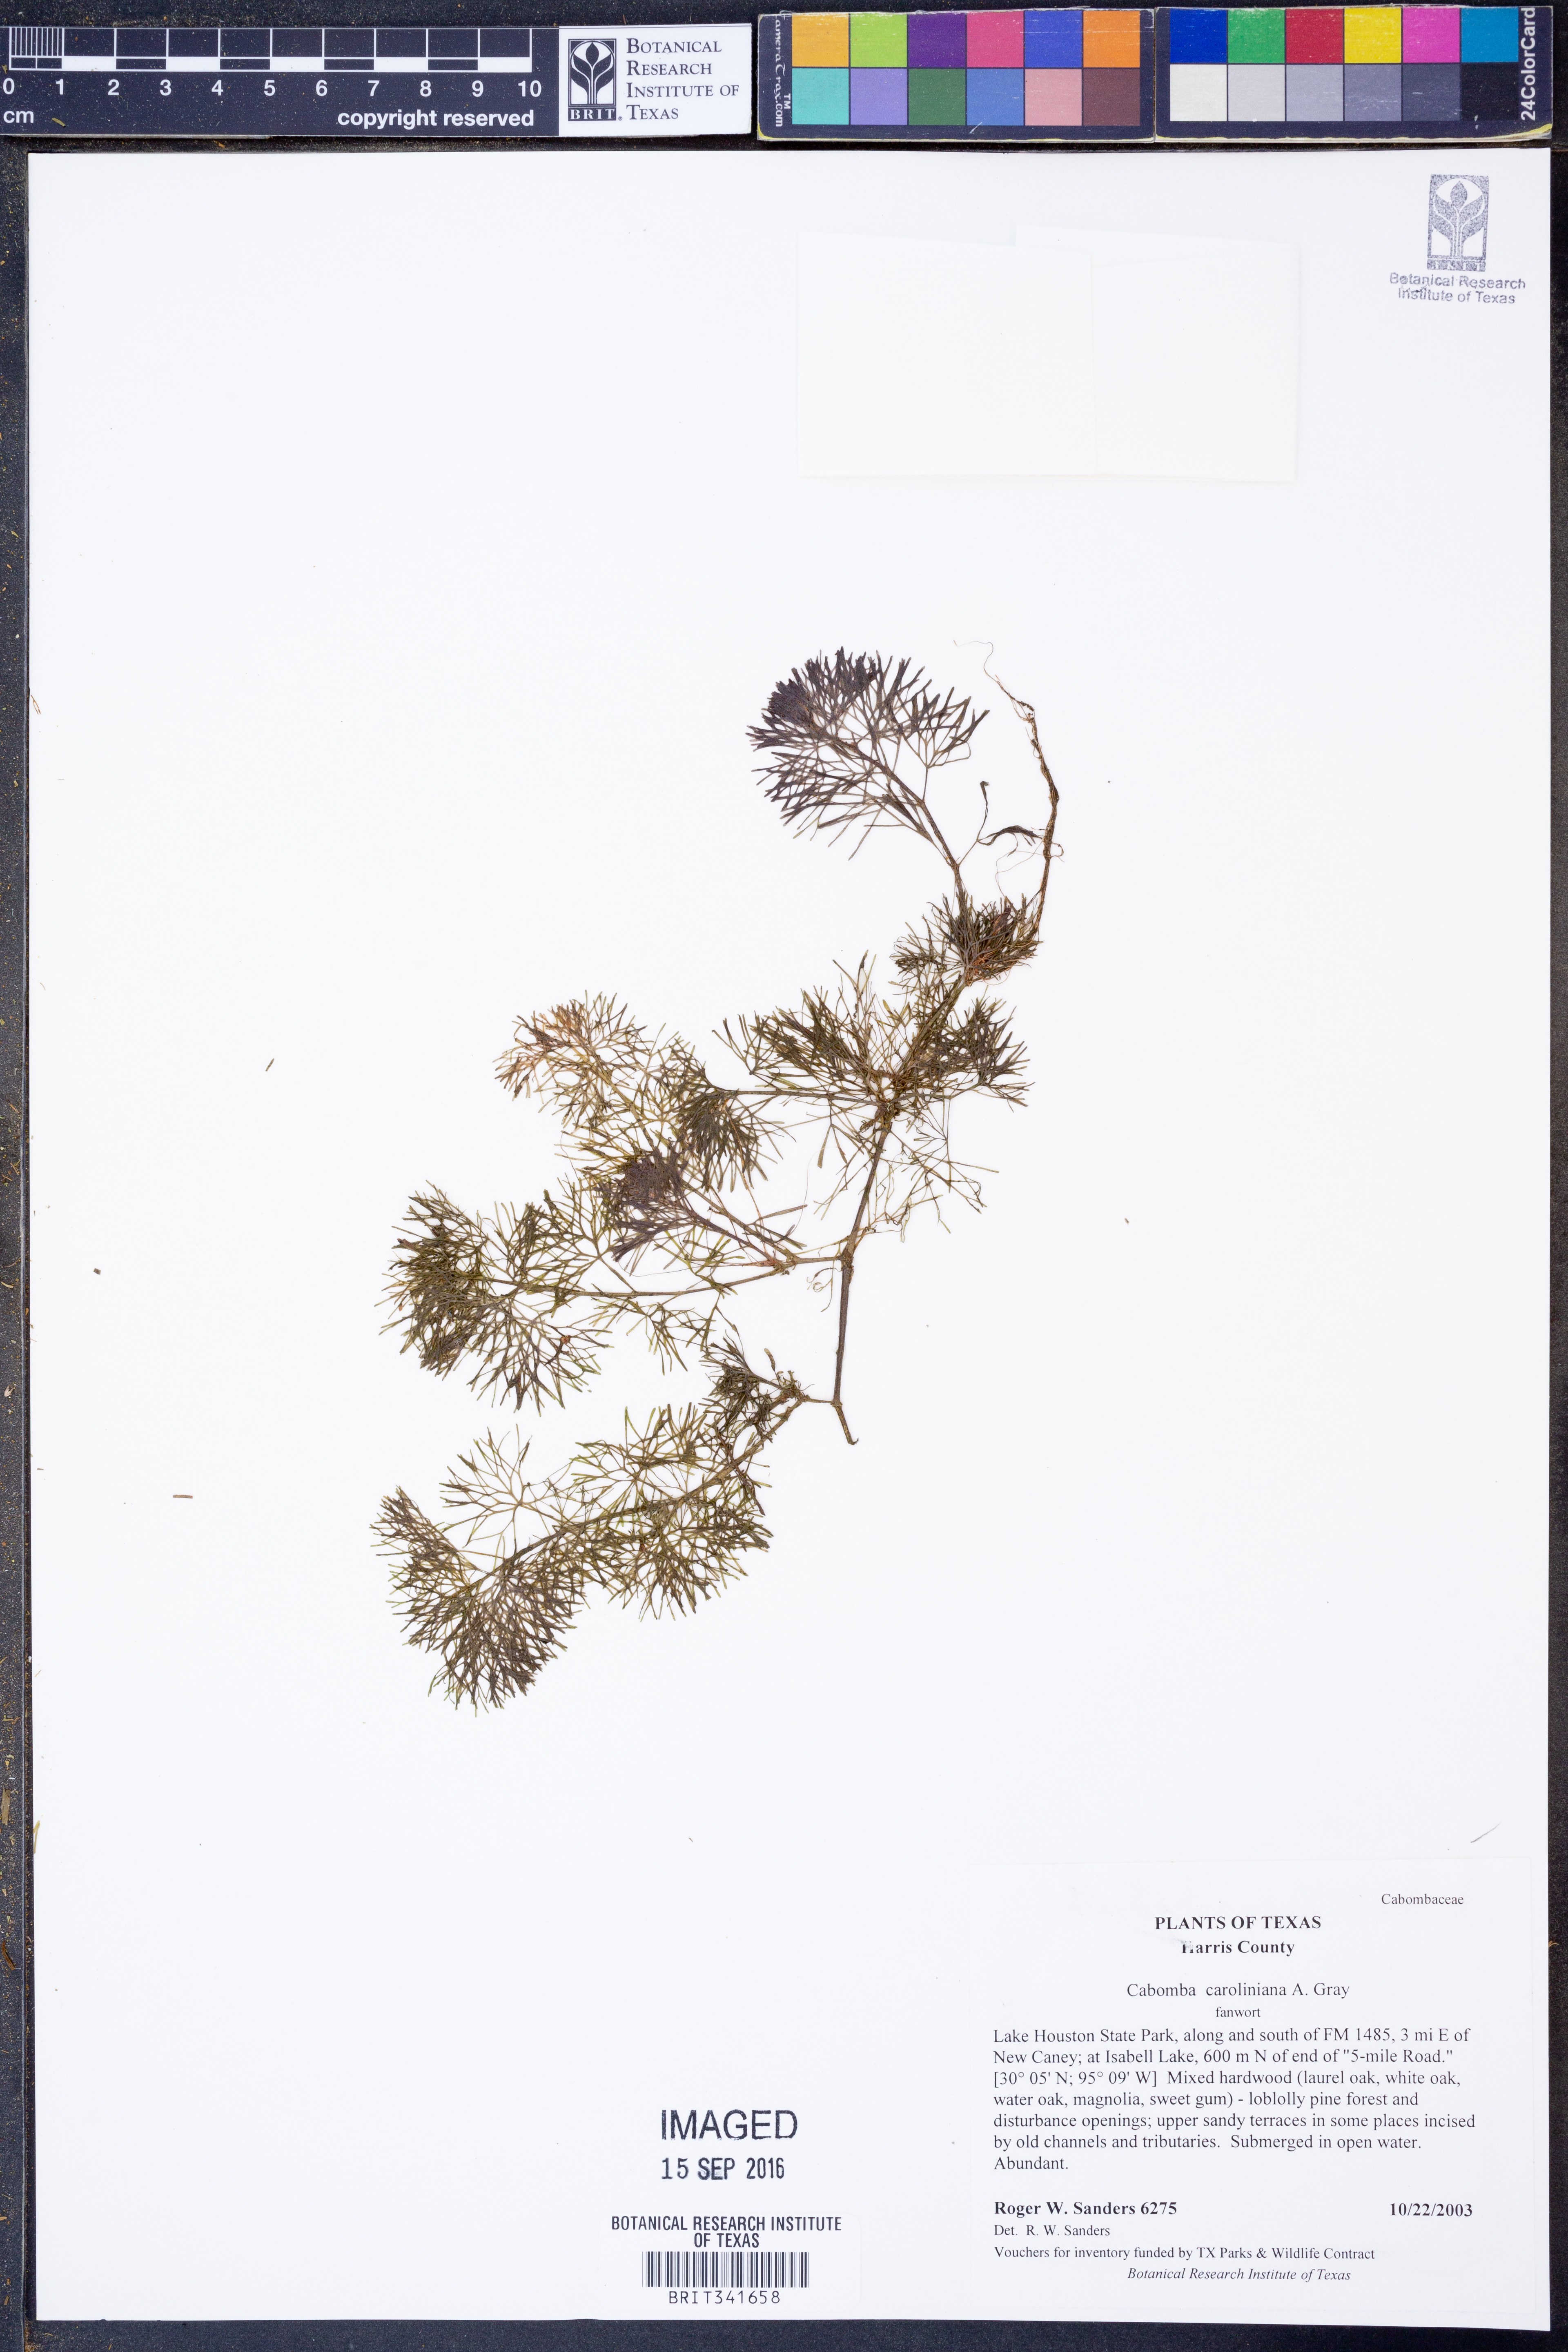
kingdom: Plantae
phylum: Tracheophyta
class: Magnoliopsida
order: Nymphaeales
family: Cabombaceae
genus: Cabomba
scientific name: Cabomba caroliniana
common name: Fanwort
